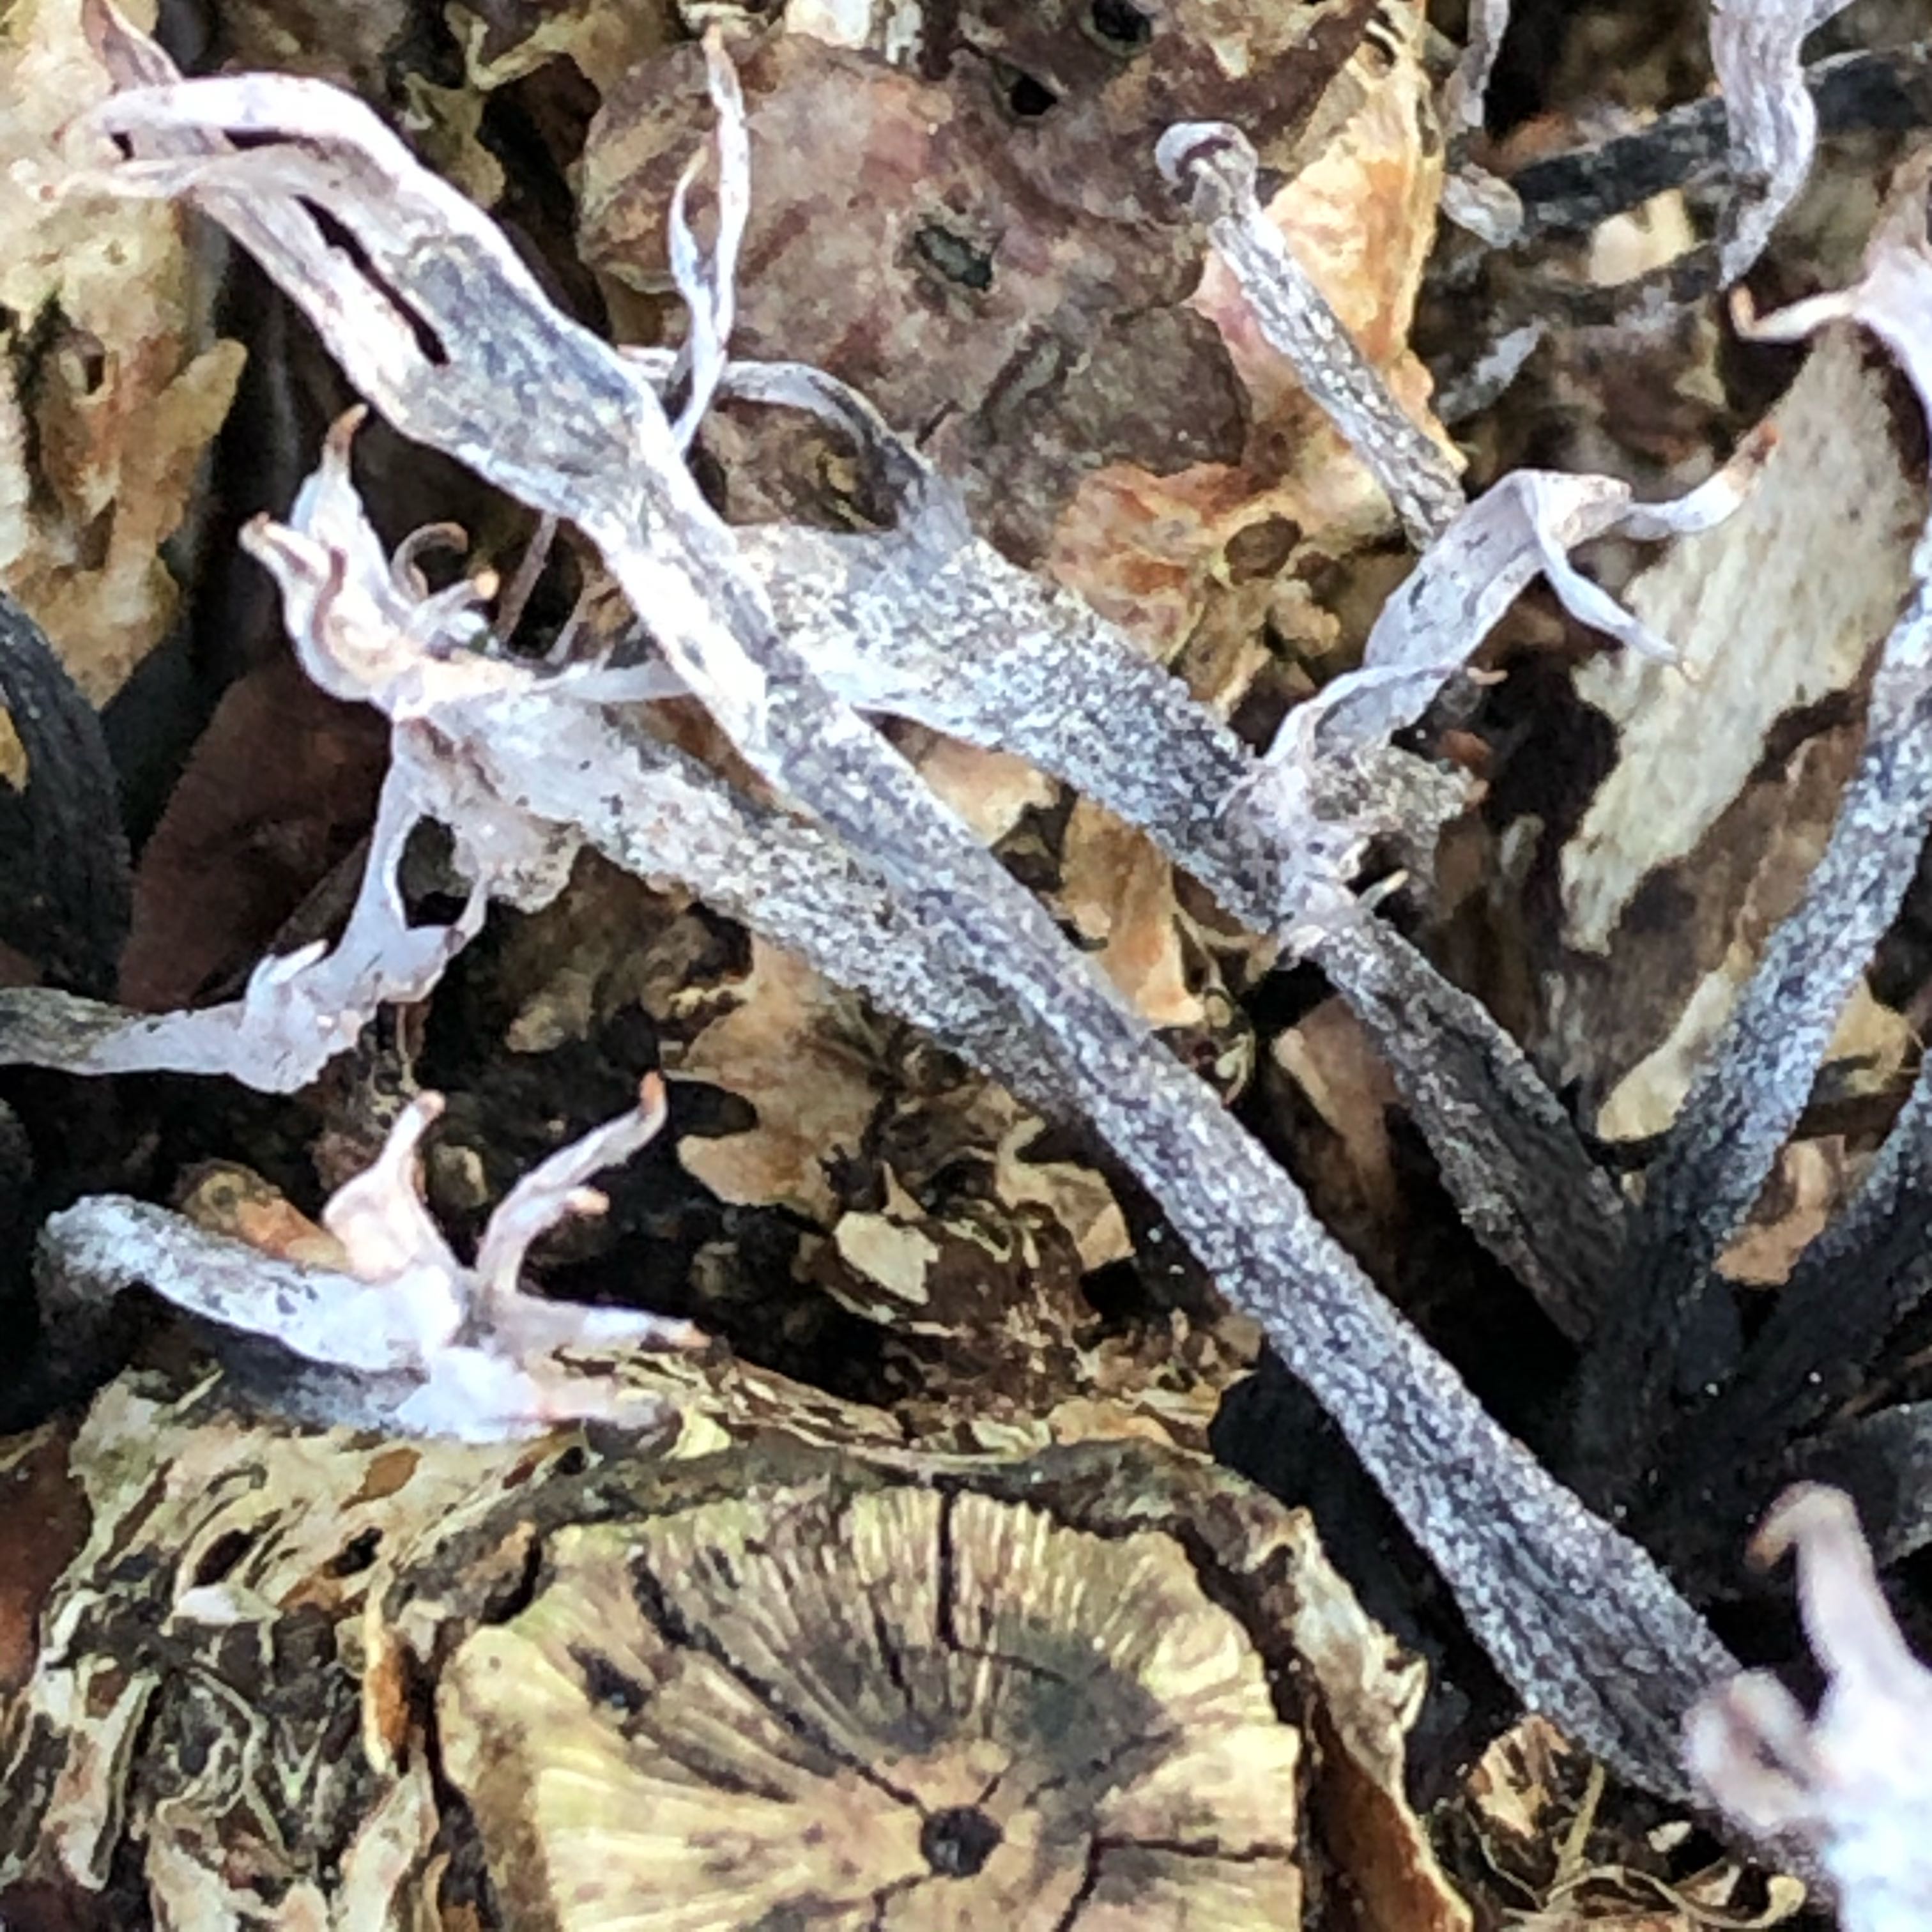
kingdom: Fungi
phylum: Ascomycota
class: Sordariomycetes
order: Xylariales
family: Xylariaceae
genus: Xylaria
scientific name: Xylaria hypoxylon
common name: grenet stødsvamp
